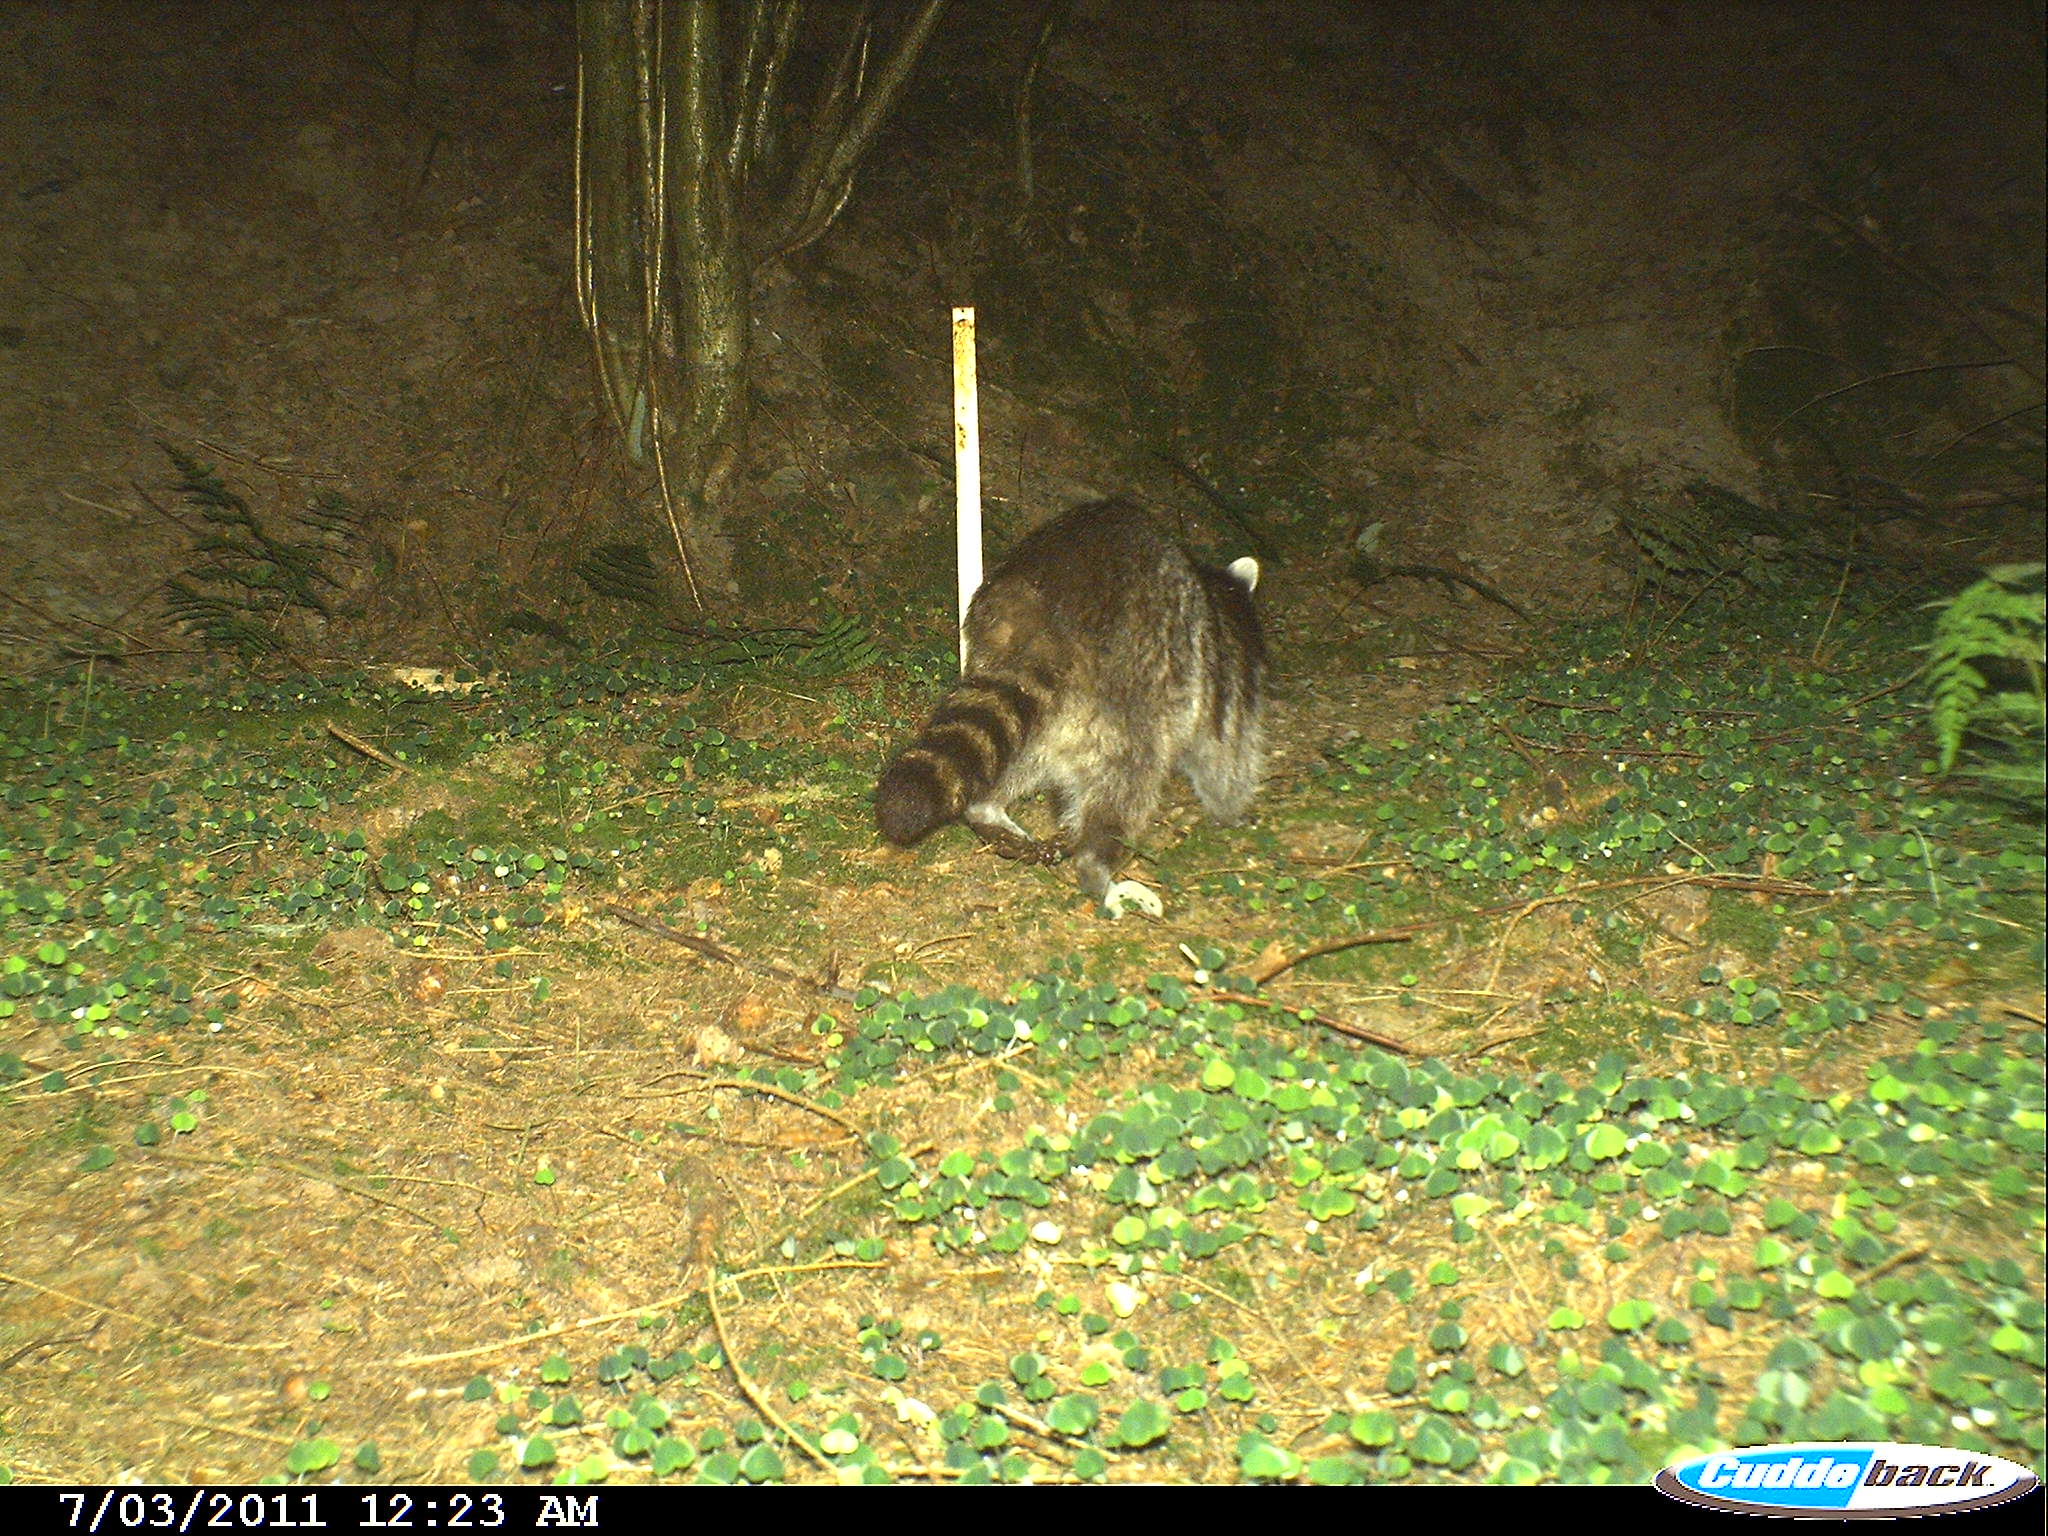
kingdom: Animalia
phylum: Chordata
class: Mammalia
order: Carnivora
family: Procyonidae
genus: Procyon
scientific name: Procyon lotor
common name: Raccoon
